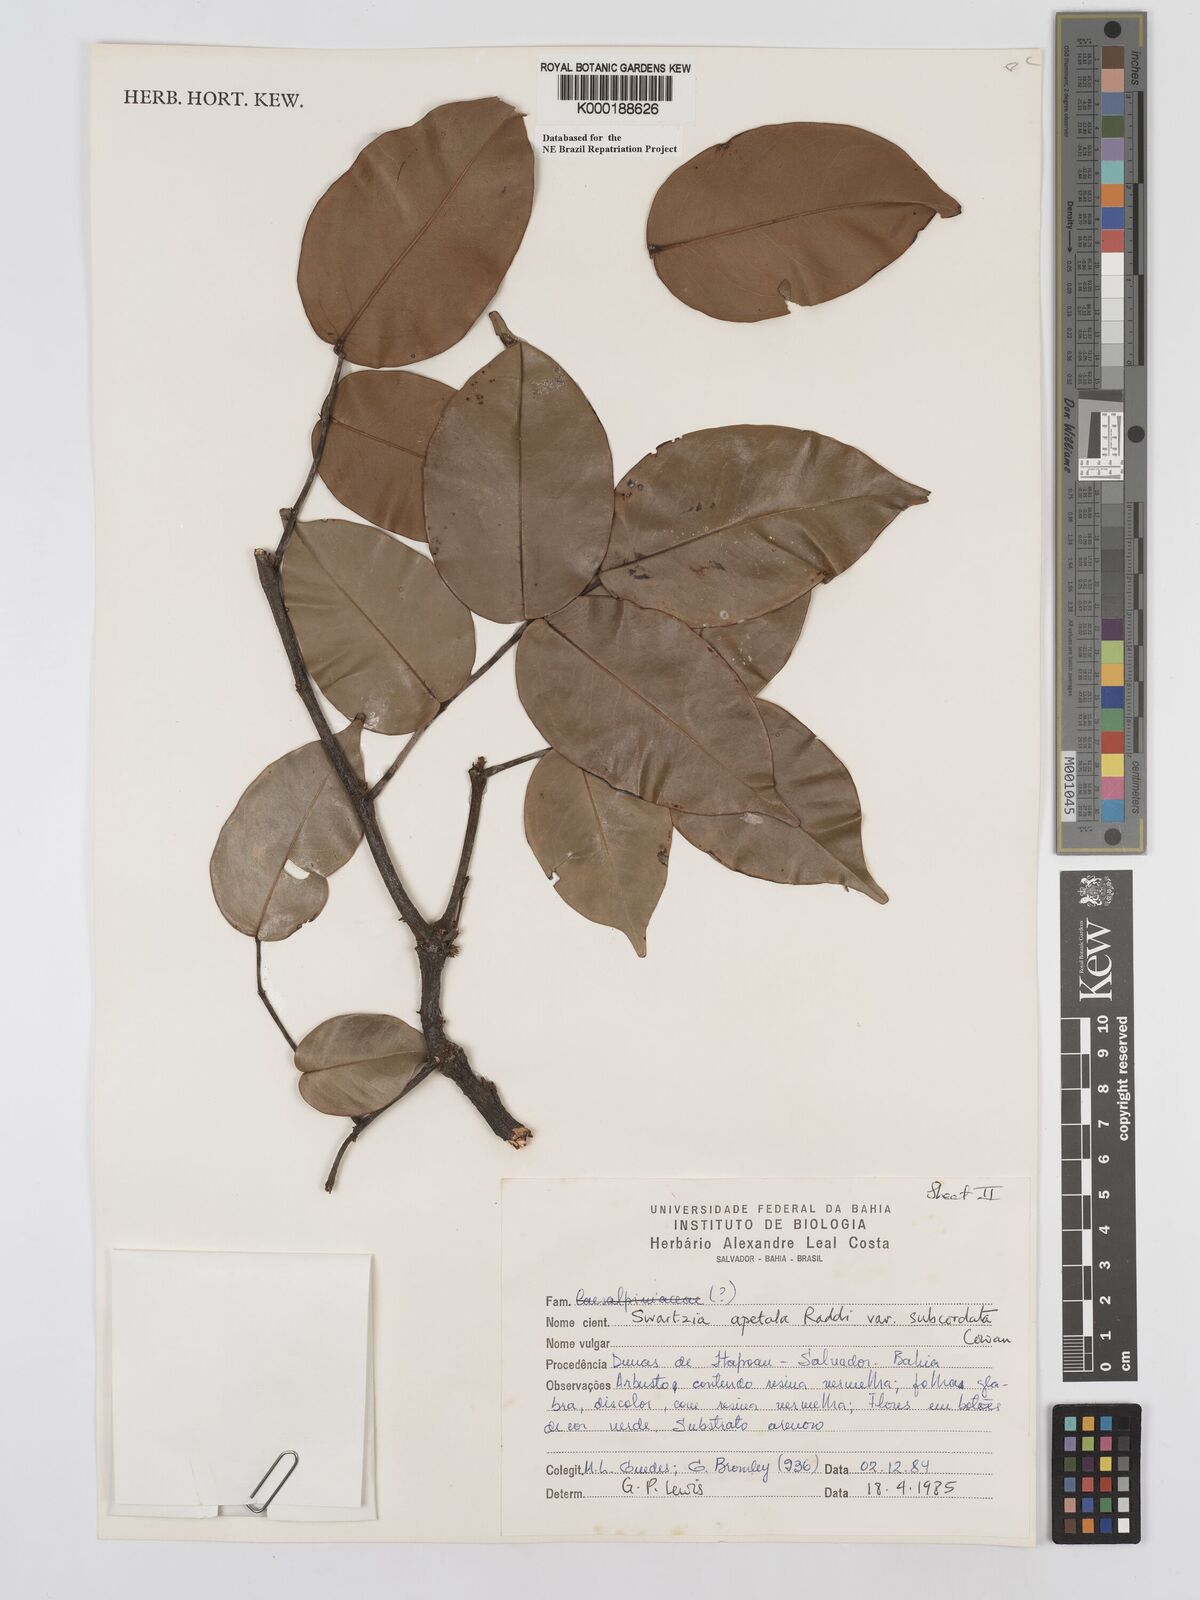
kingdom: Plantae
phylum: Tracheophyta
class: Magnoliopsida
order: Fabales
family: Fabaceae
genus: Swartzia
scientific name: Swartzia apetala
